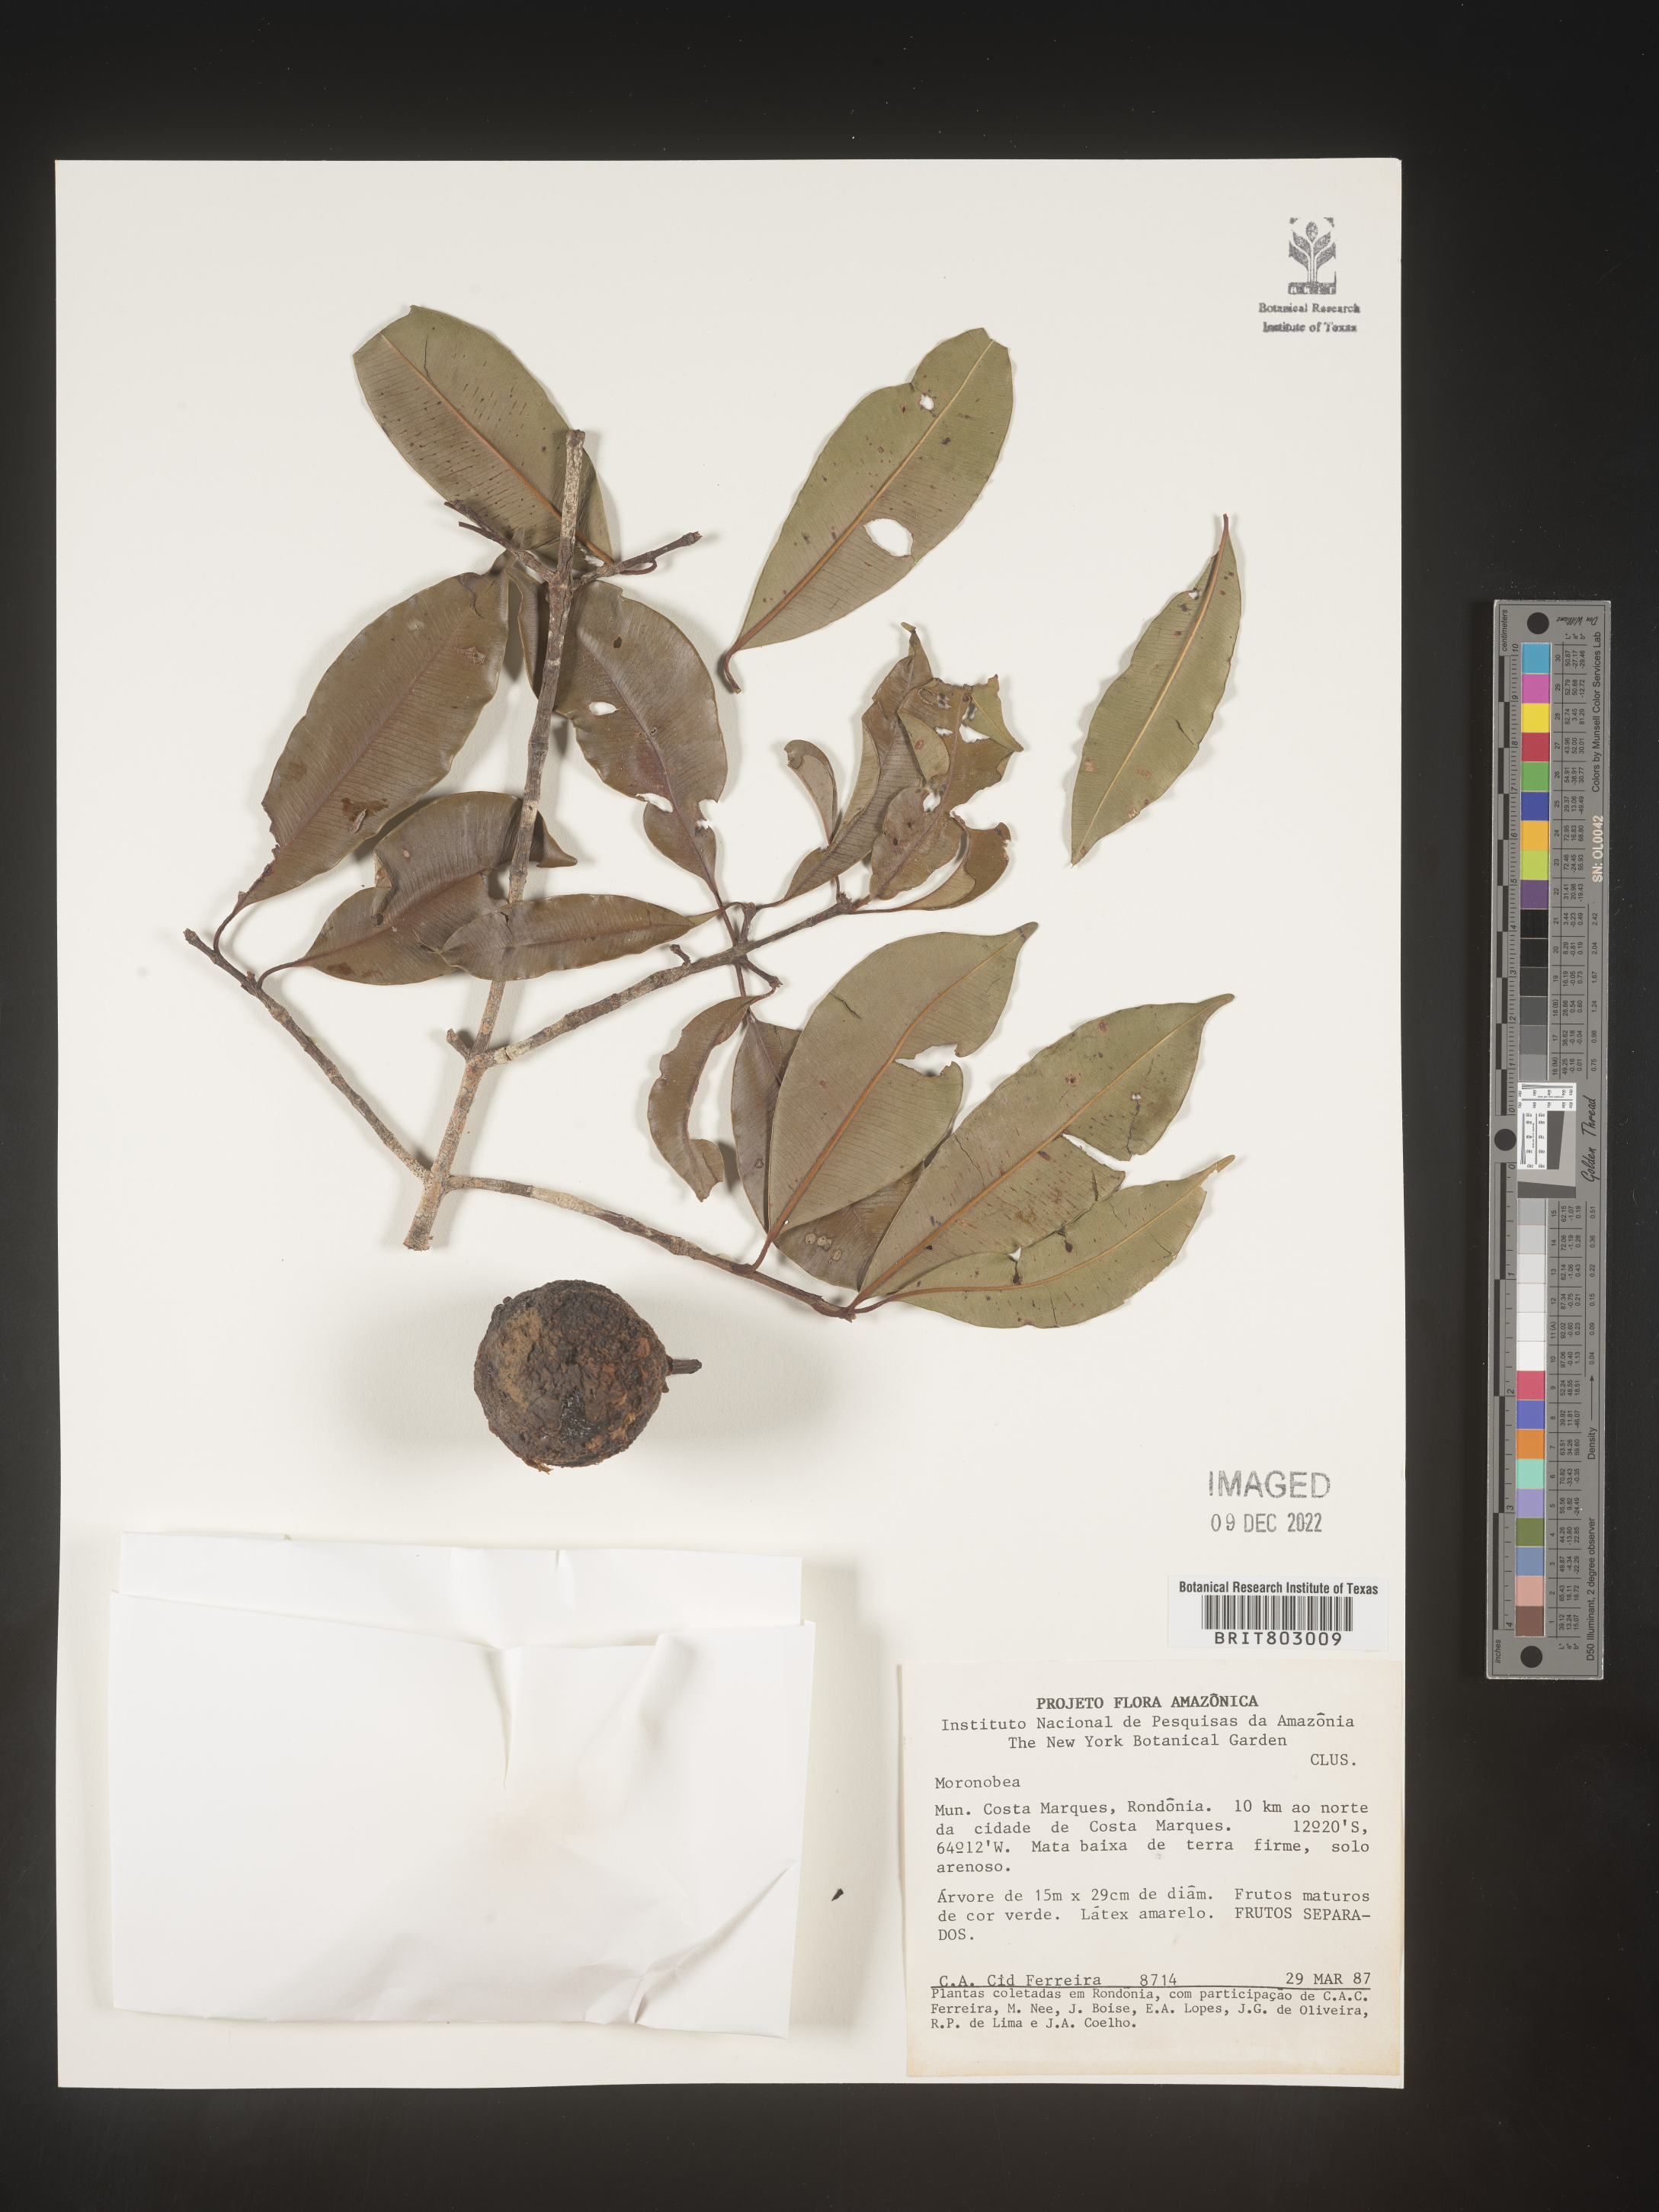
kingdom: Plantae
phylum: Tracheophyta
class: Magnoliopsida
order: Malpighiales
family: Clusiaceae
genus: Moronobea
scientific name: Moronobea
